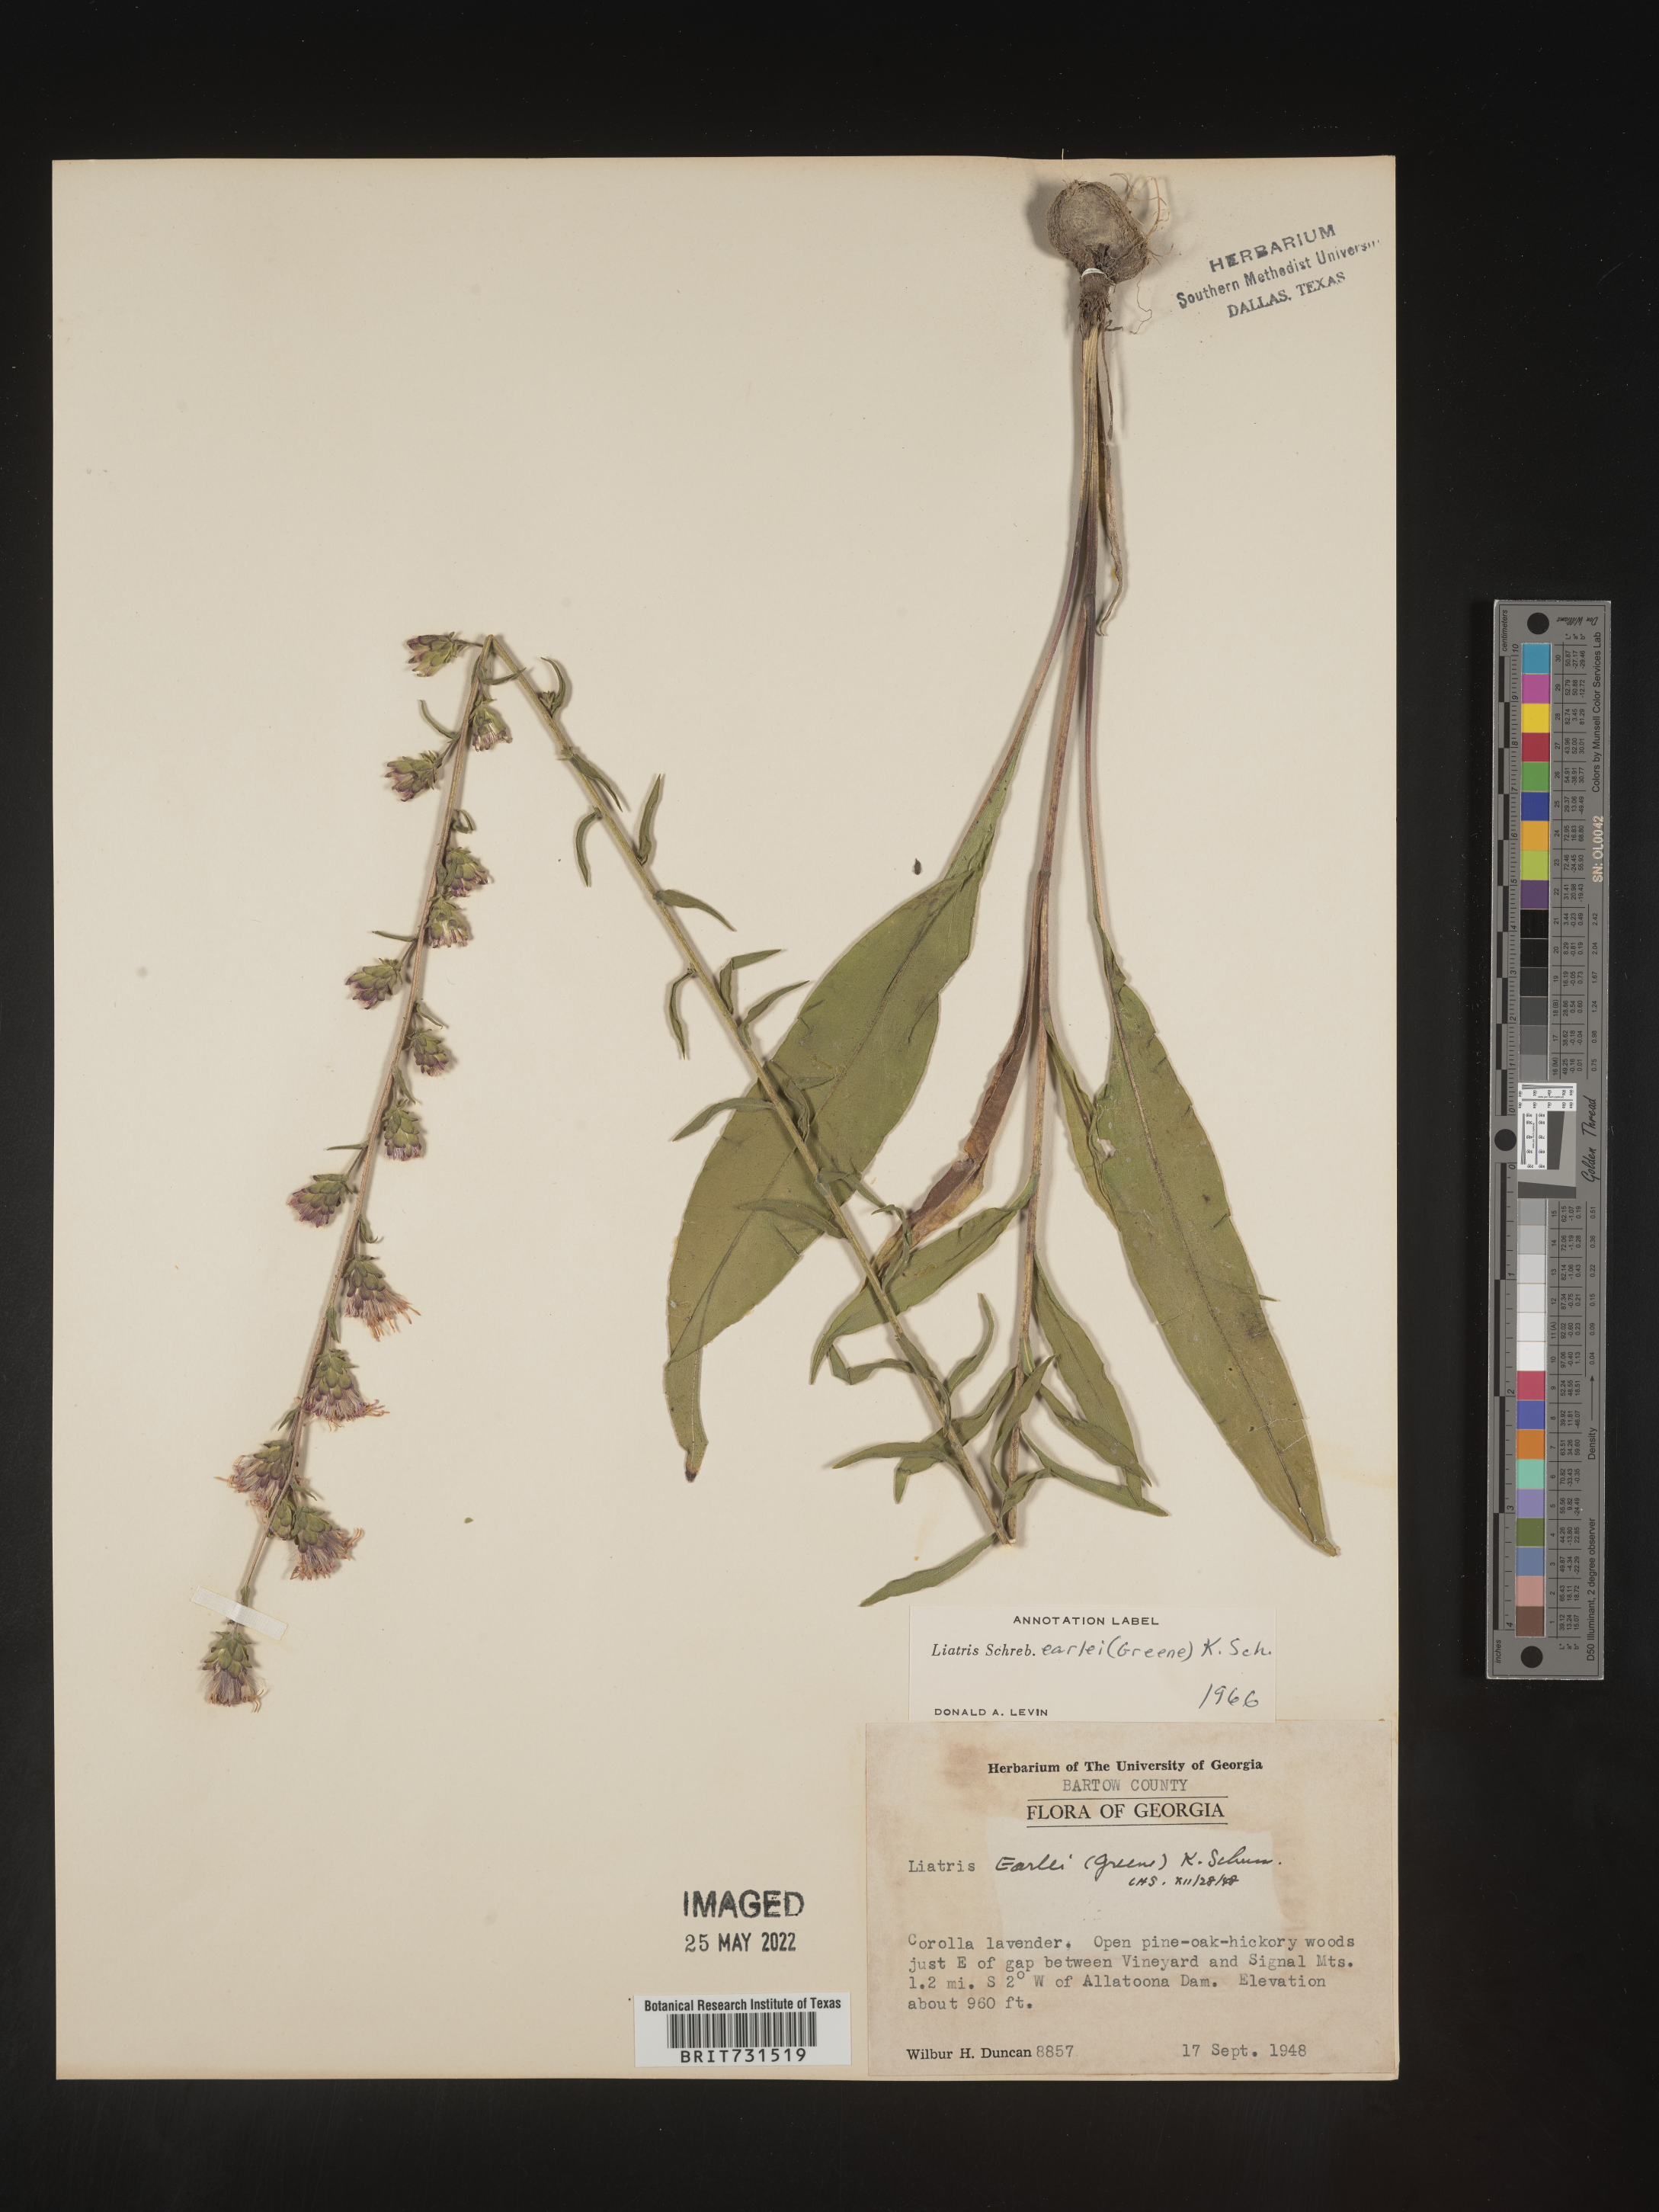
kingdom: Plantae
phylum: Tracheophyta
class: Magnoliopsida
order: Asterales
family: Asteraceae
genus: Liatris
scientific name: Liatris squarrulosa
